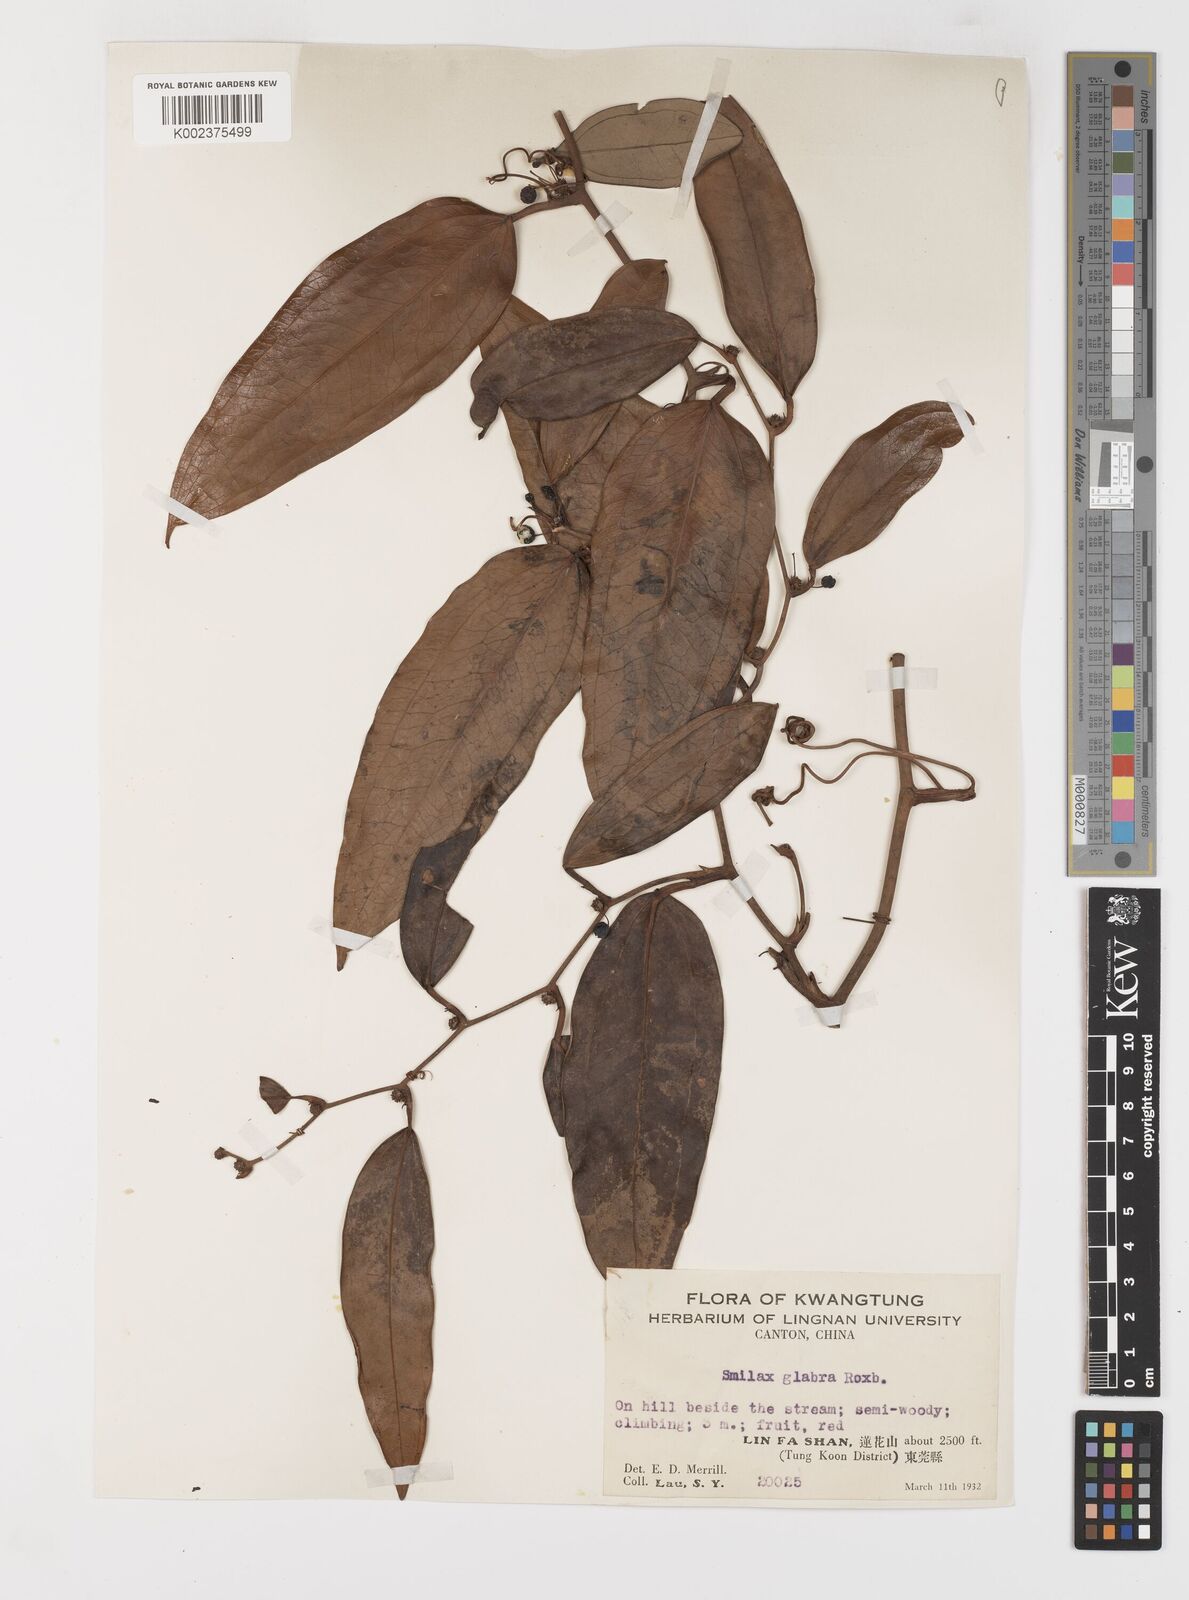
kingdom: Plantae
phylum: Tracheophyta
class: Liliopsida
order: Liliales
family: Smilacaceae
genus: Smilax
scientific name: Smilax glabra
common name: Chinese smilax
